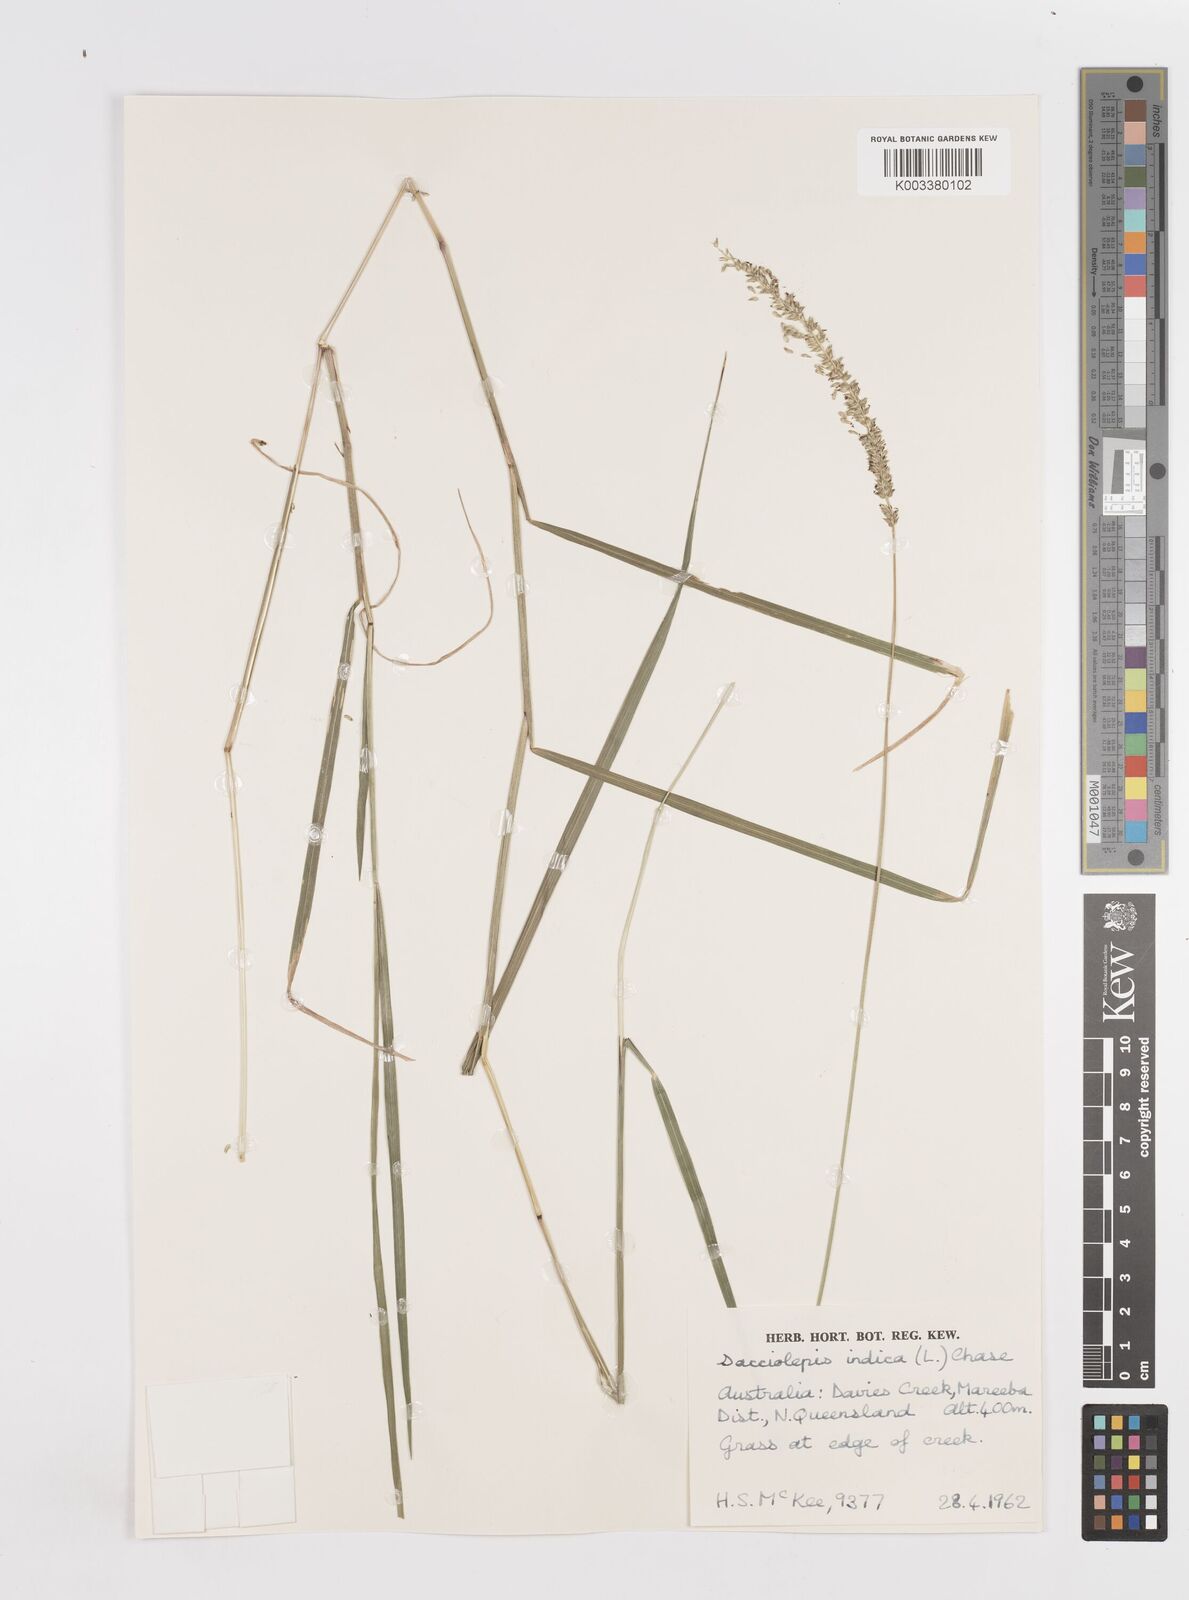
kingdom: Plantae
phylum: Tracheophyta
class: Liliopsida
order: Poales
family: Poaceae
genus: Sacciolepis
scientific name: Sacciolepis indica
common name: Glenwoodgrass
